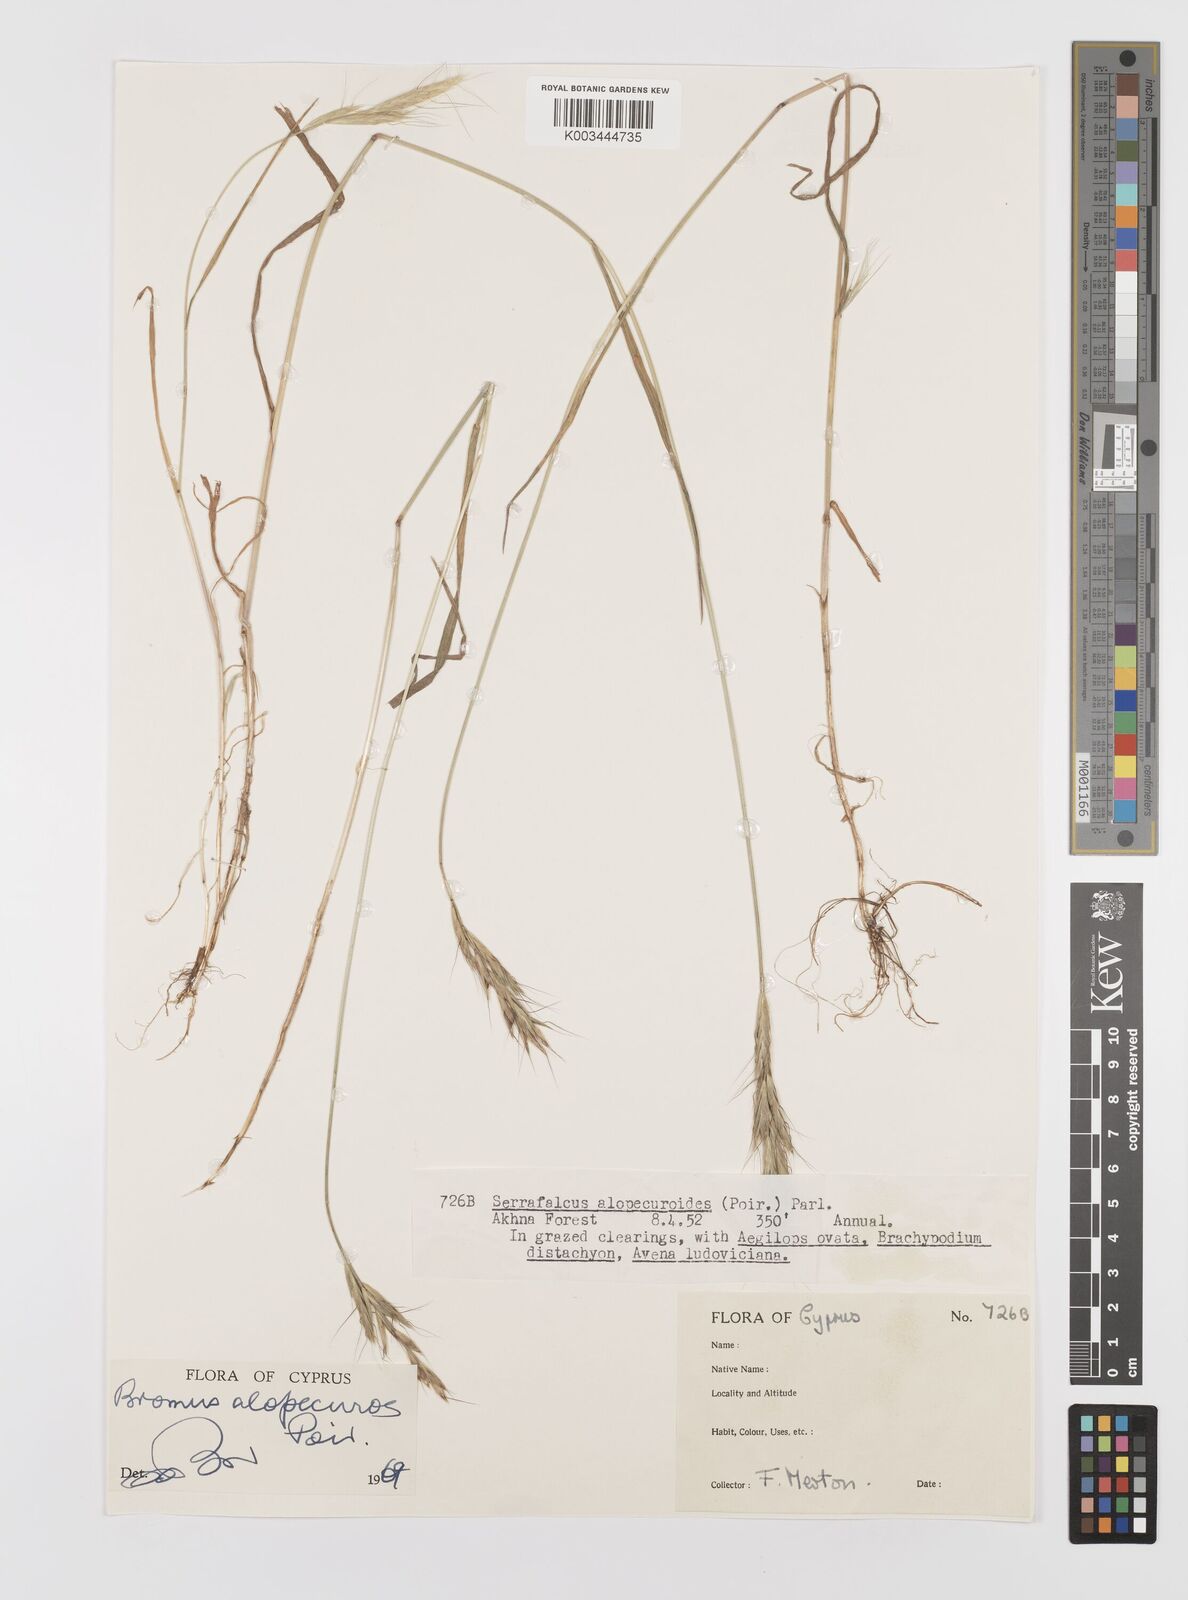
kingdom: Plantae
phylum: Tracheophyta
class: Liliopsida
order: Poales
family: Poaceae
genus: Bromus
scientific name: Bromus alopecuros
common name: Weedy brome
